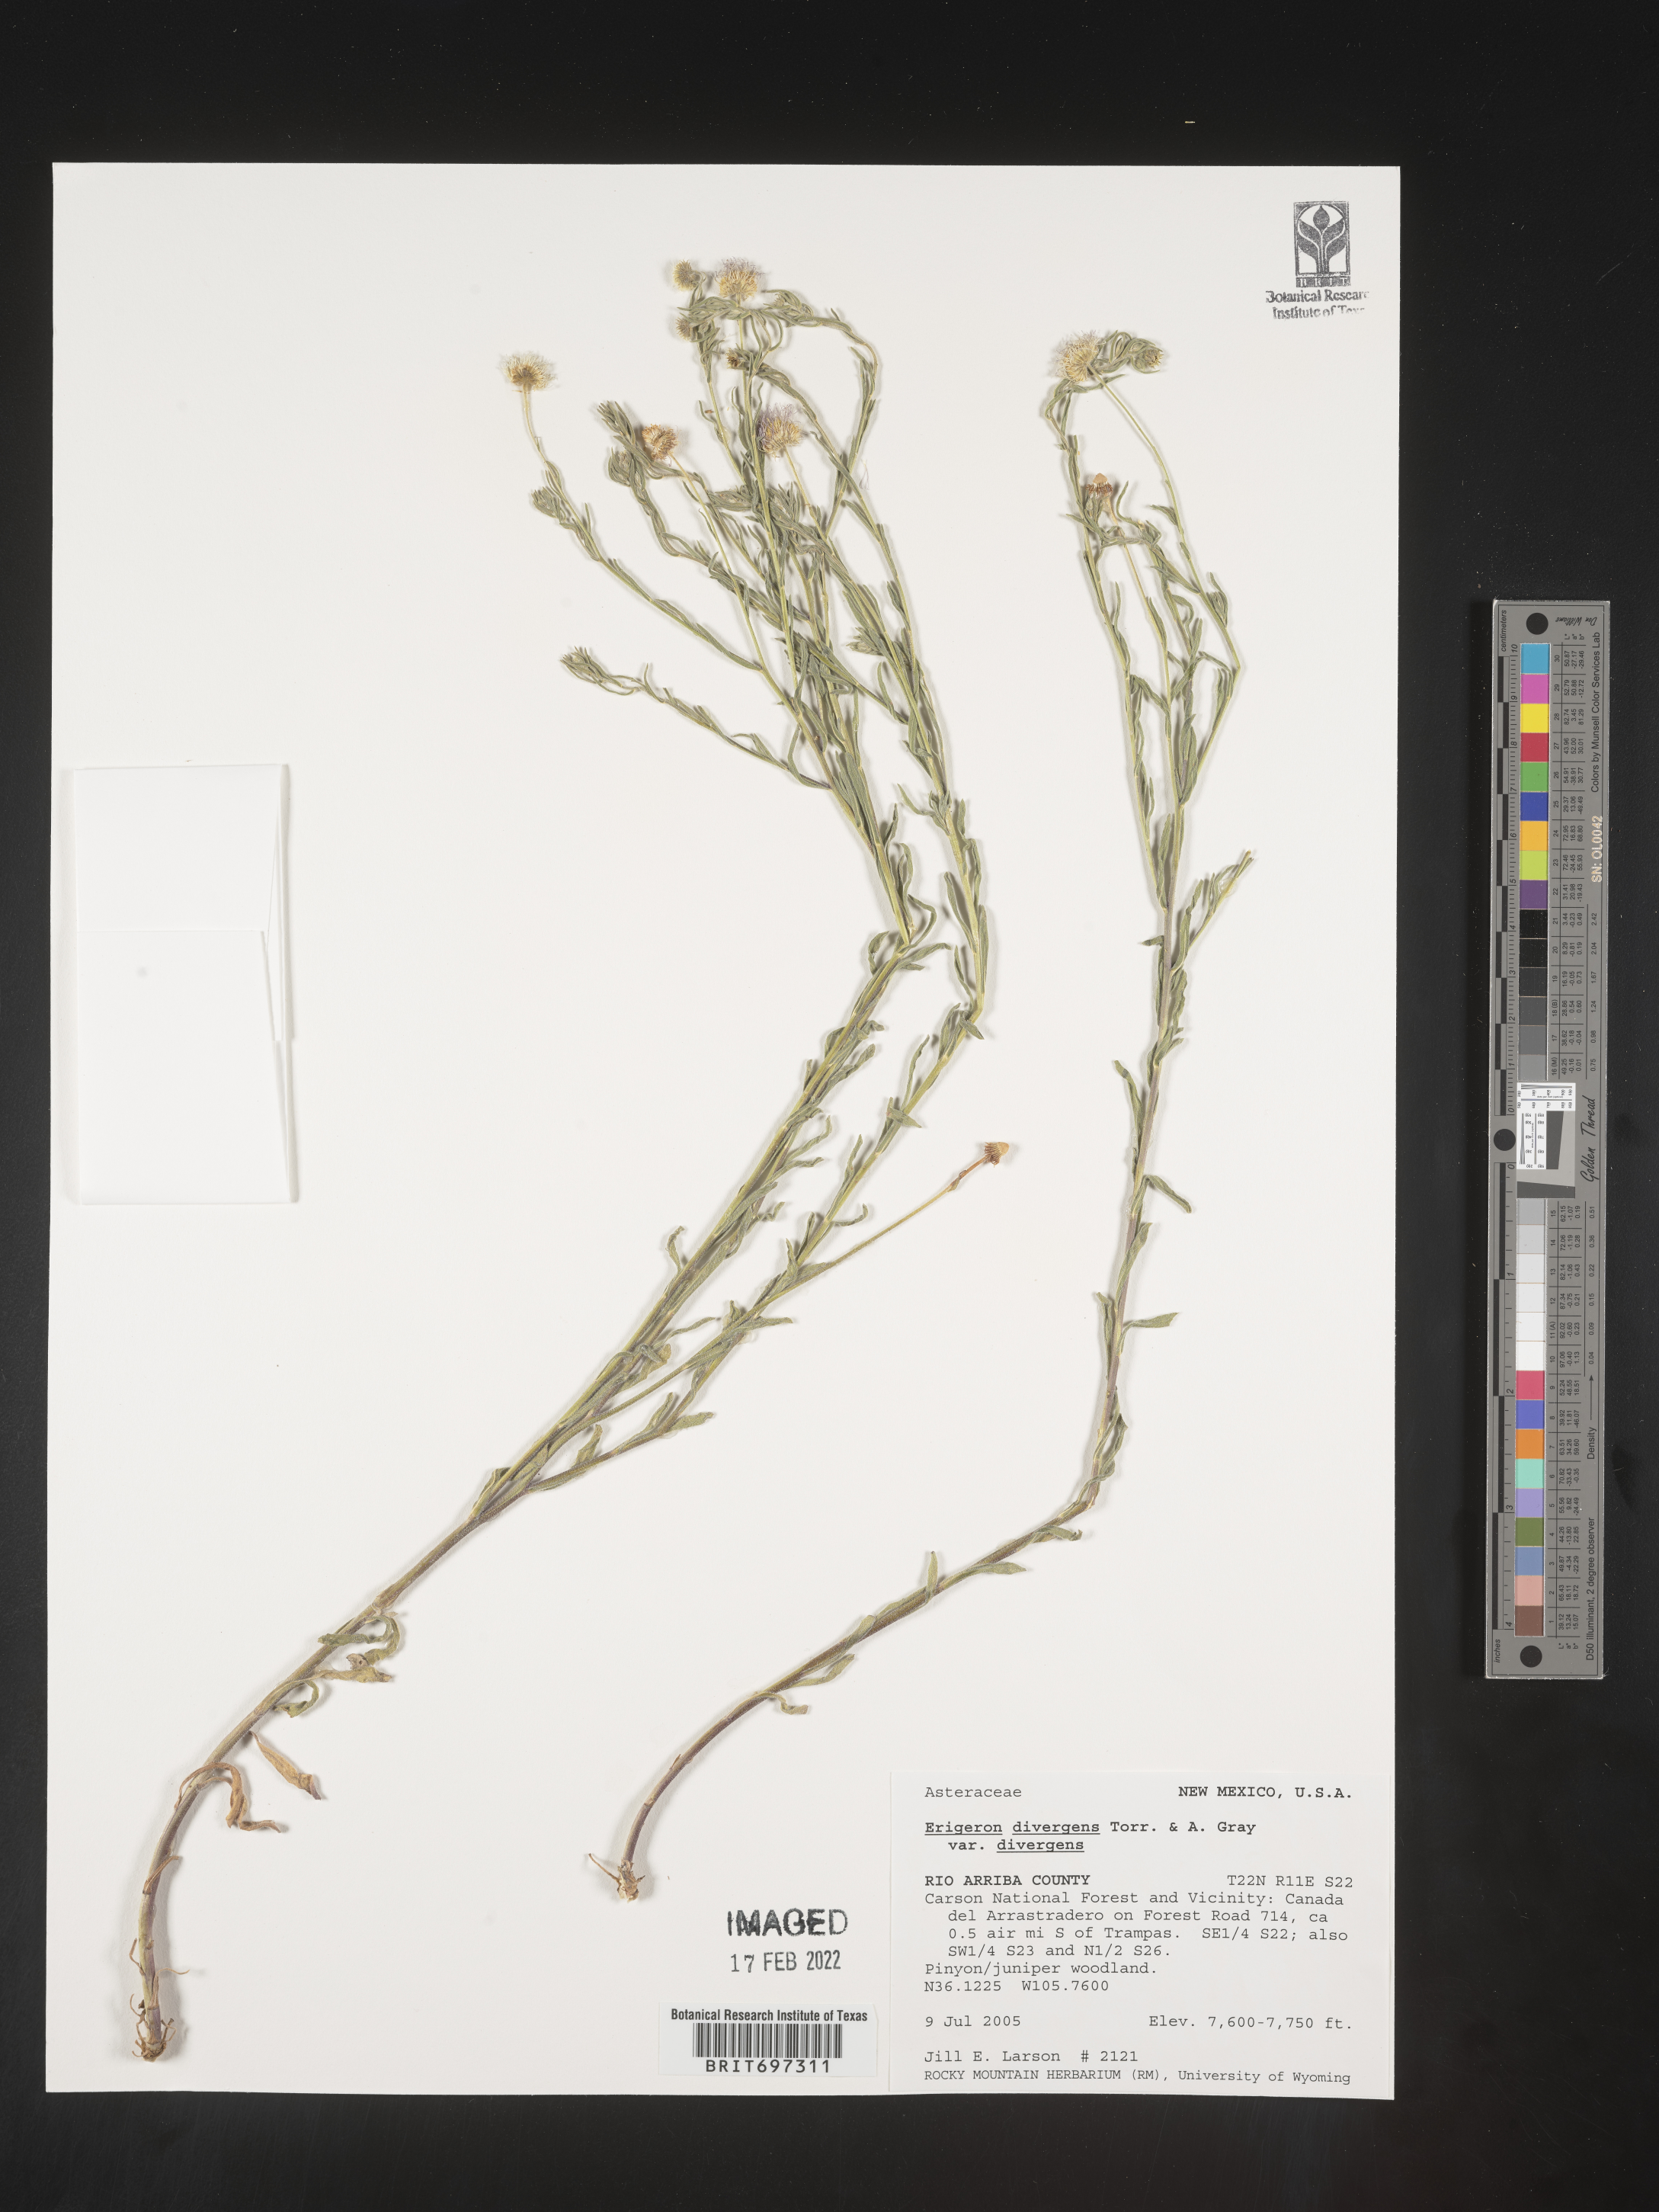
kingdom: Plantae
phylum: Tracheophyta
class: Magnoliopsida
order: Asterales
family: Asteraceae
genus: Erigeron
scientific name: Erigeron divergens
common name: Diffuse fleabane
